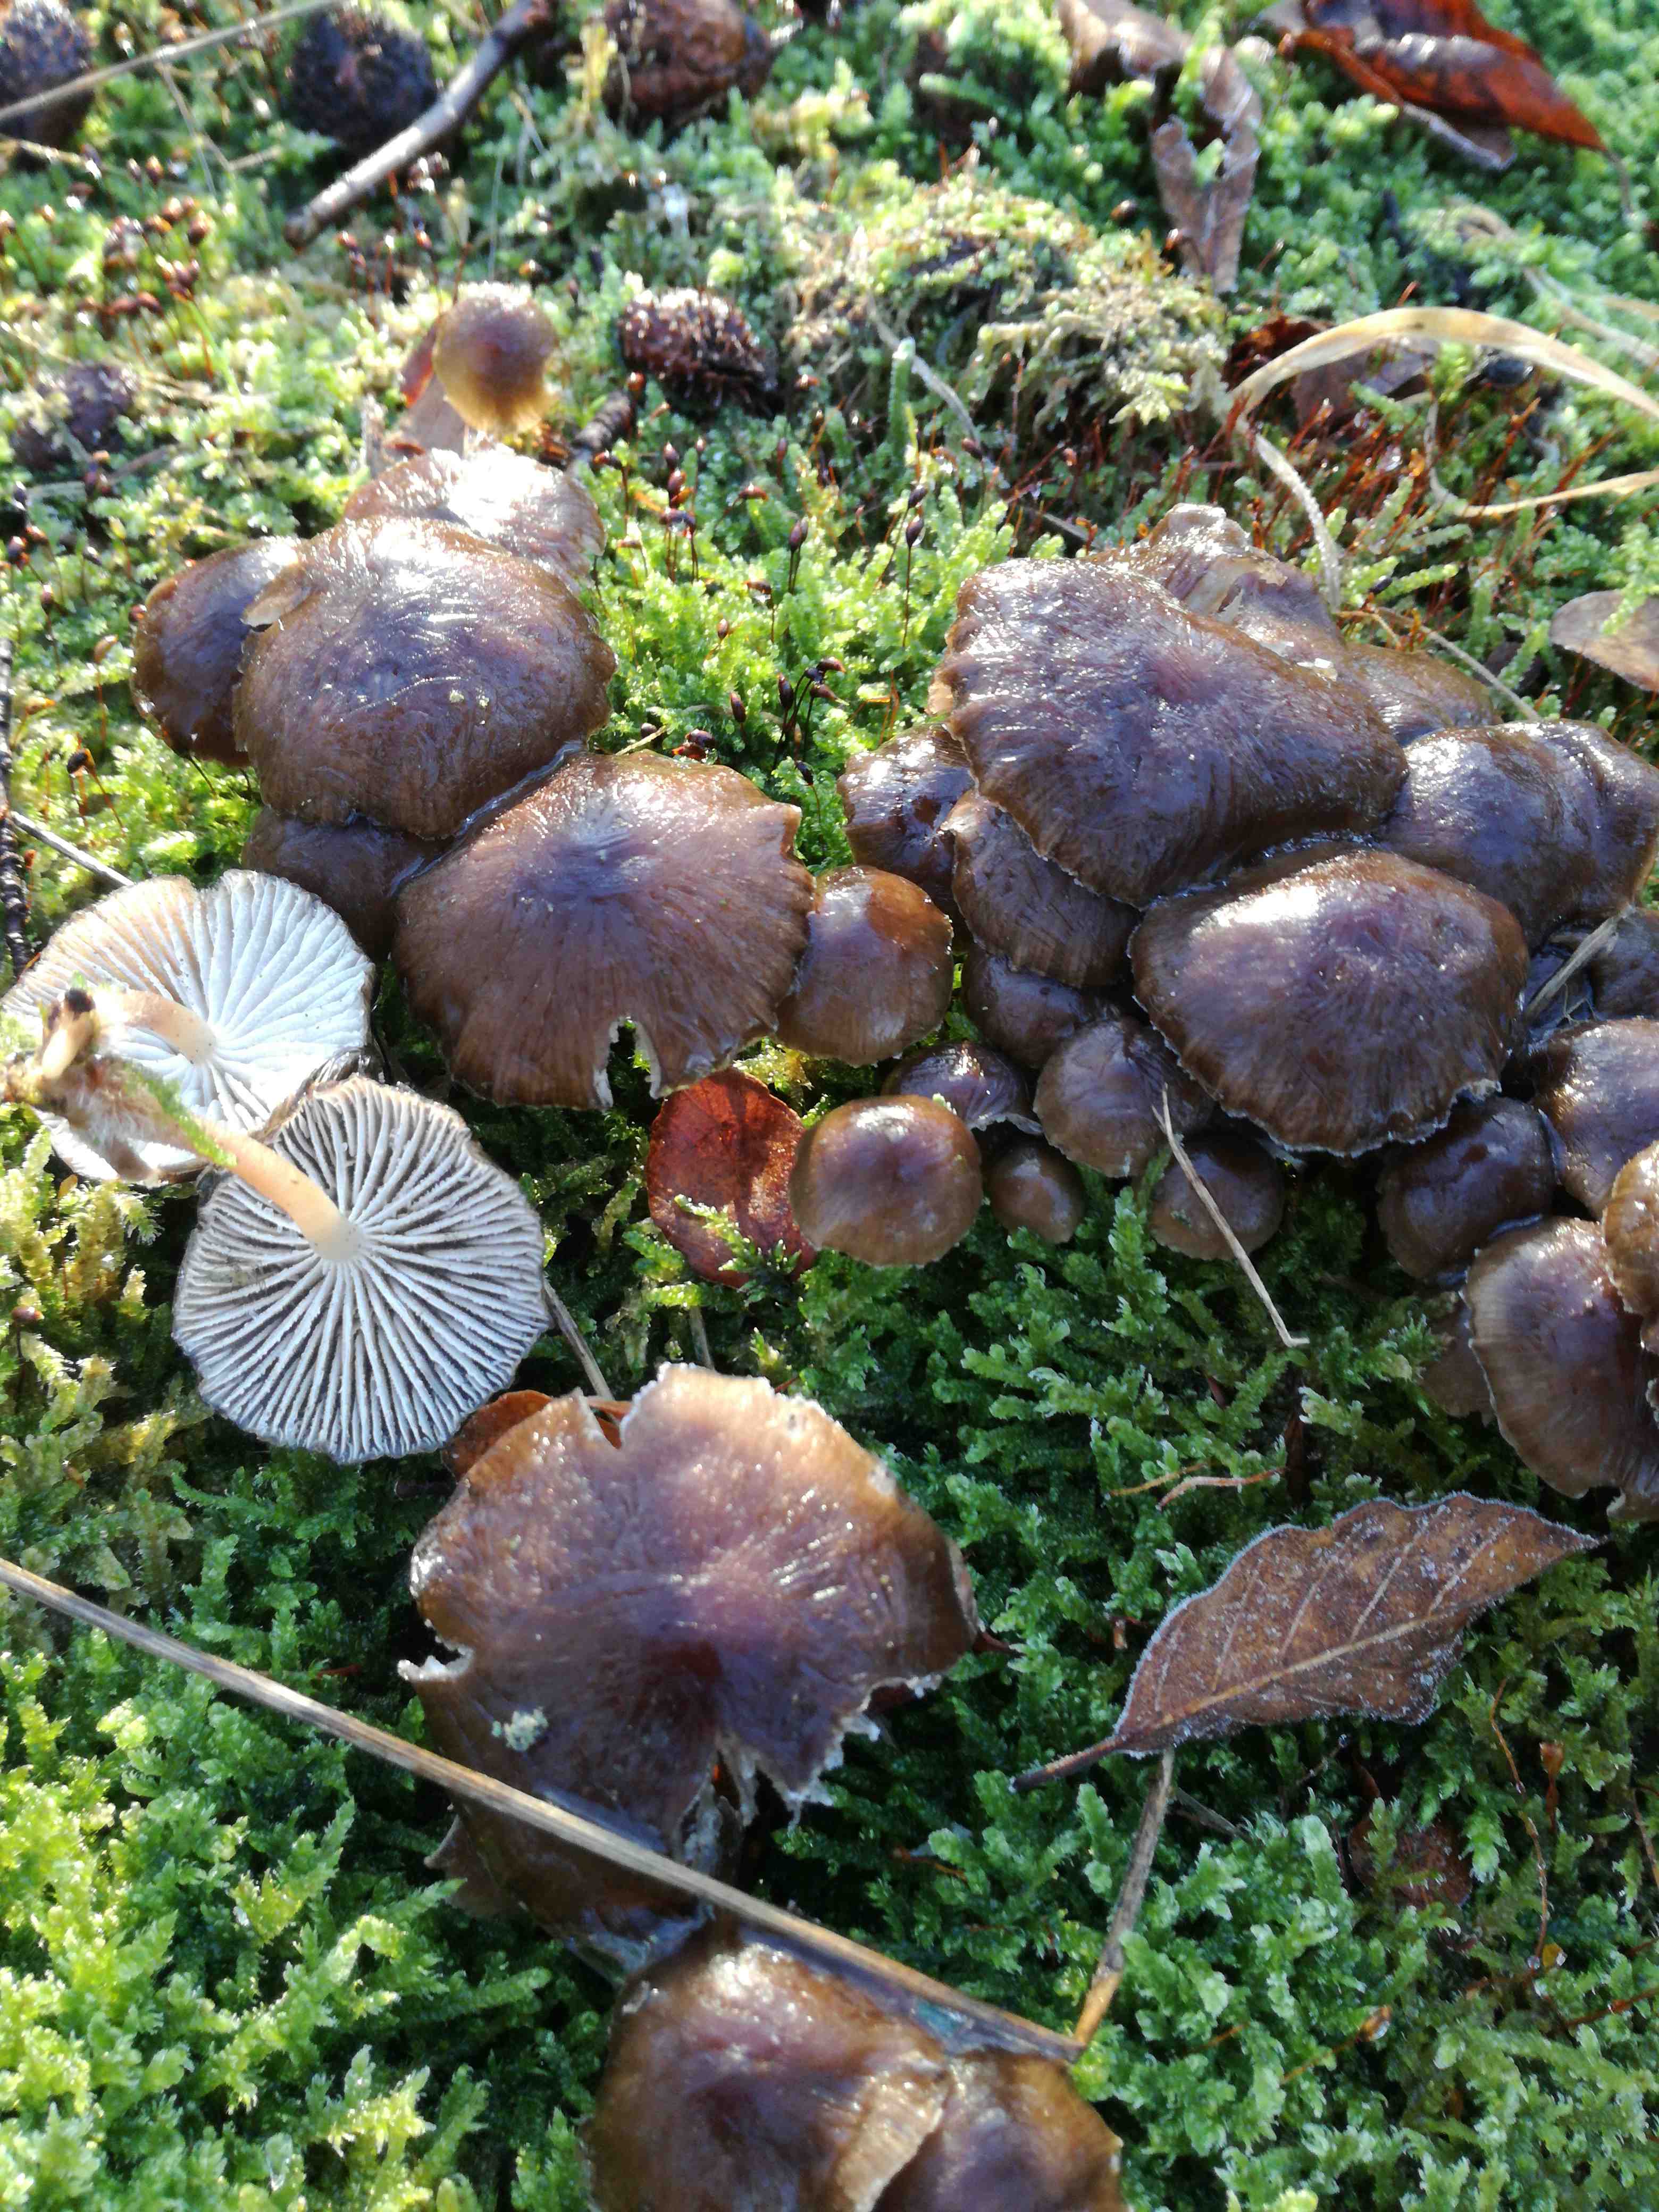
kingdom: Fungi
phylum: Basidiomycota
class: Agaricomycetes
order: Agaricales
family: Mycenaceae
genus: Mycena
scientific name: Mycena tintinnabulum
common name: vinter-huesvamp
